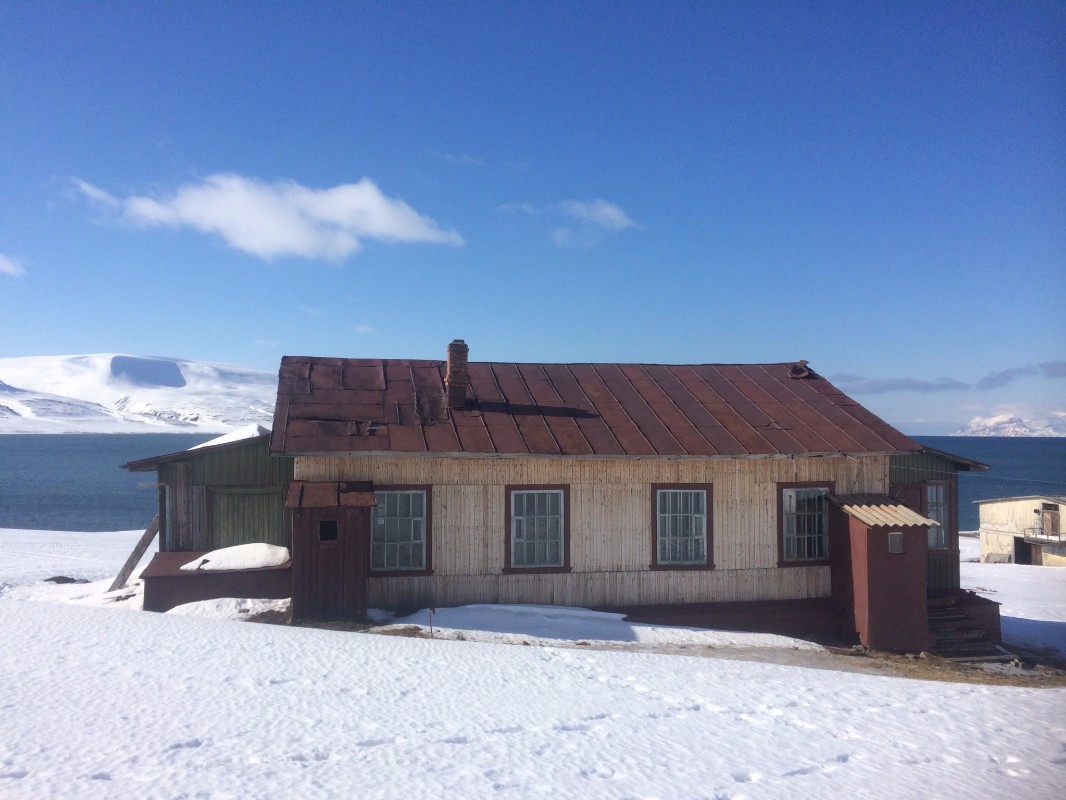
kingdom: Fungi
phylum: Basidiomycota
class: Agaricomycetes
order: Agaricales
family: Nidulariaceae
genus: Crucibulum
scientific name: Crucibulum crucibuliforme
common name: krukkesvamp
